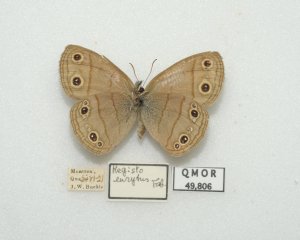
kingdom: Animalia
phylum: Arthropoda
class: Insecta
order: Lepidoptera
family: Nymphalidae
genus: Euptychia
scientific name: Euptychia cymela
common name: Little Wood Satyr
